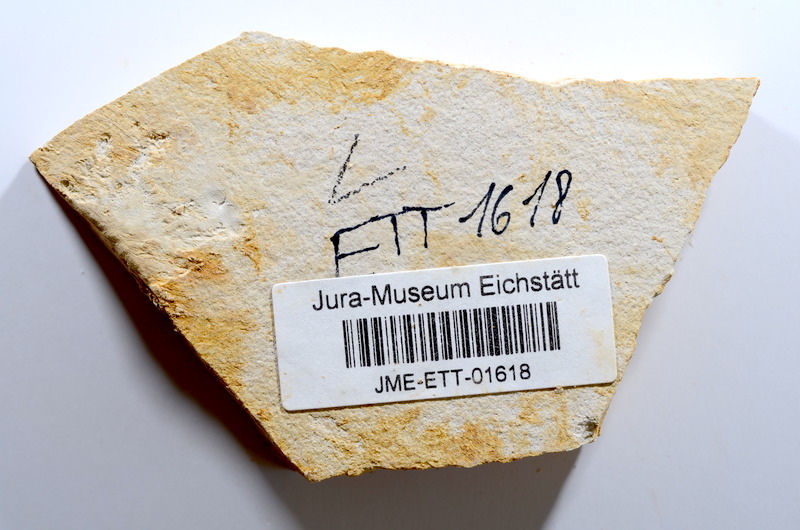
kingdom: Animalia
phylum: Chordata
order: Salmoniformes
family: Orthogonikleithridae
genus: Orthogonikleithrus
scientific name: Orthogonikleithrus hoelli
